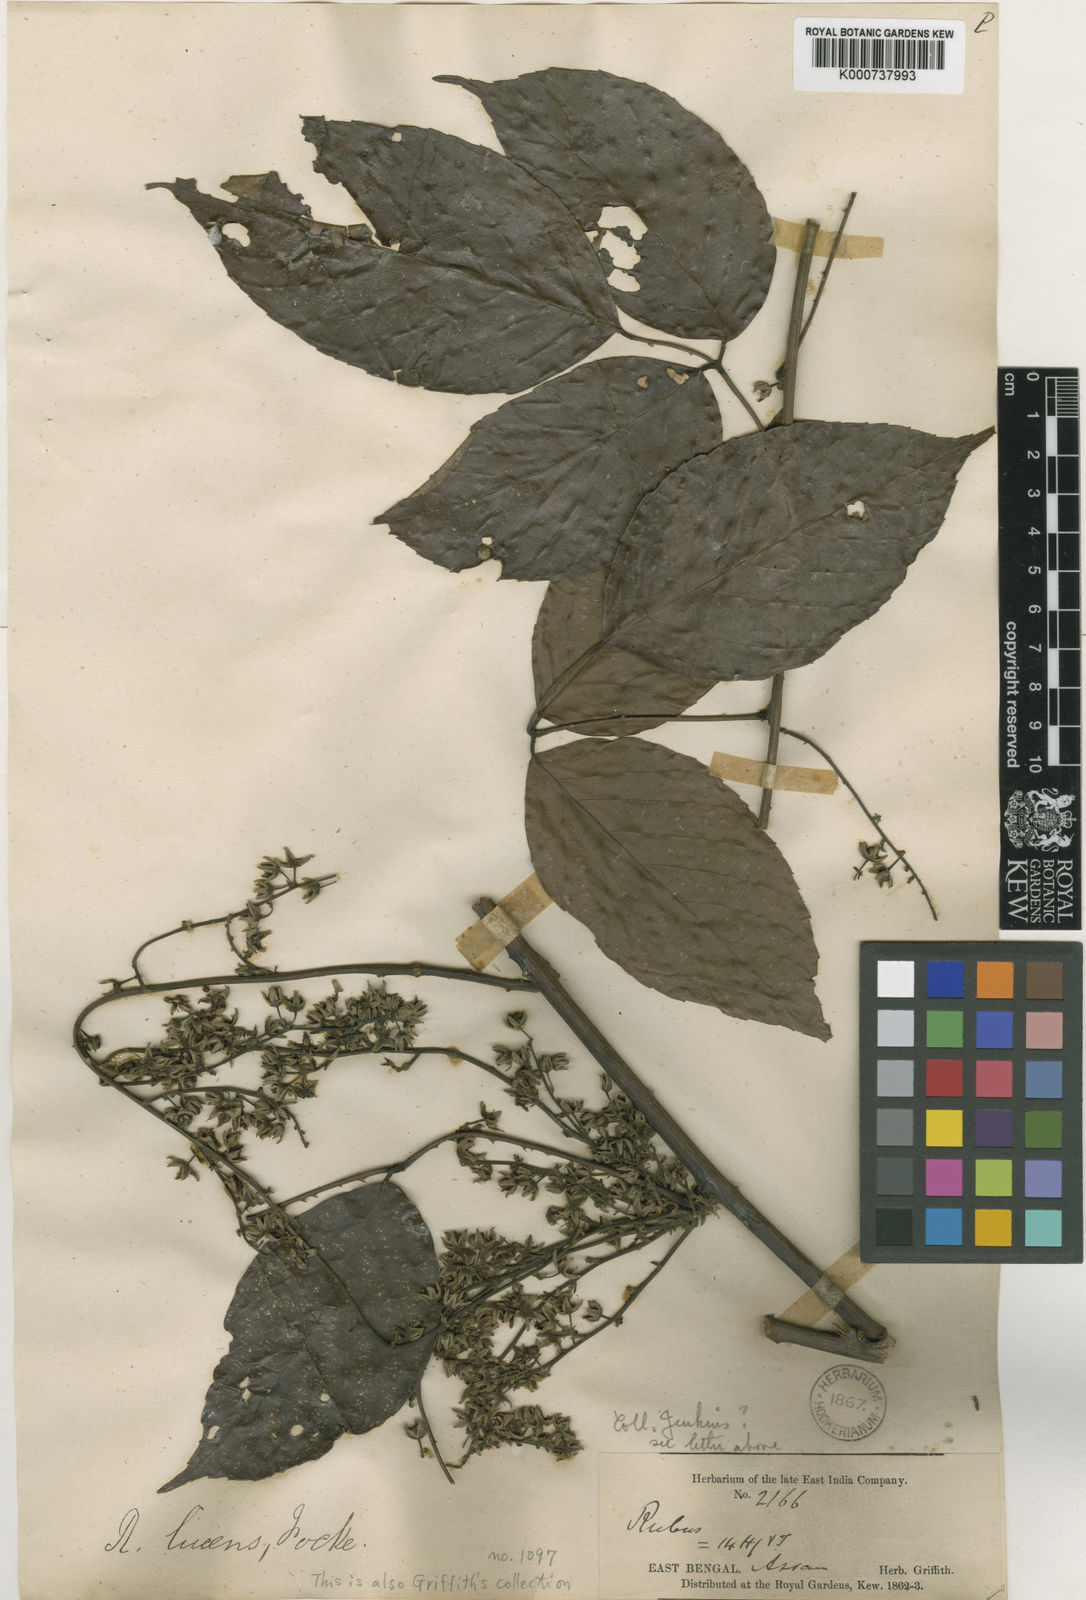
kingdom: Plantae
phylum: Tracheophyta
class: Magnoliopsida
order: Rosales
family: Rosaceae
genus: Rubus
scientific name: Rubus lucens
